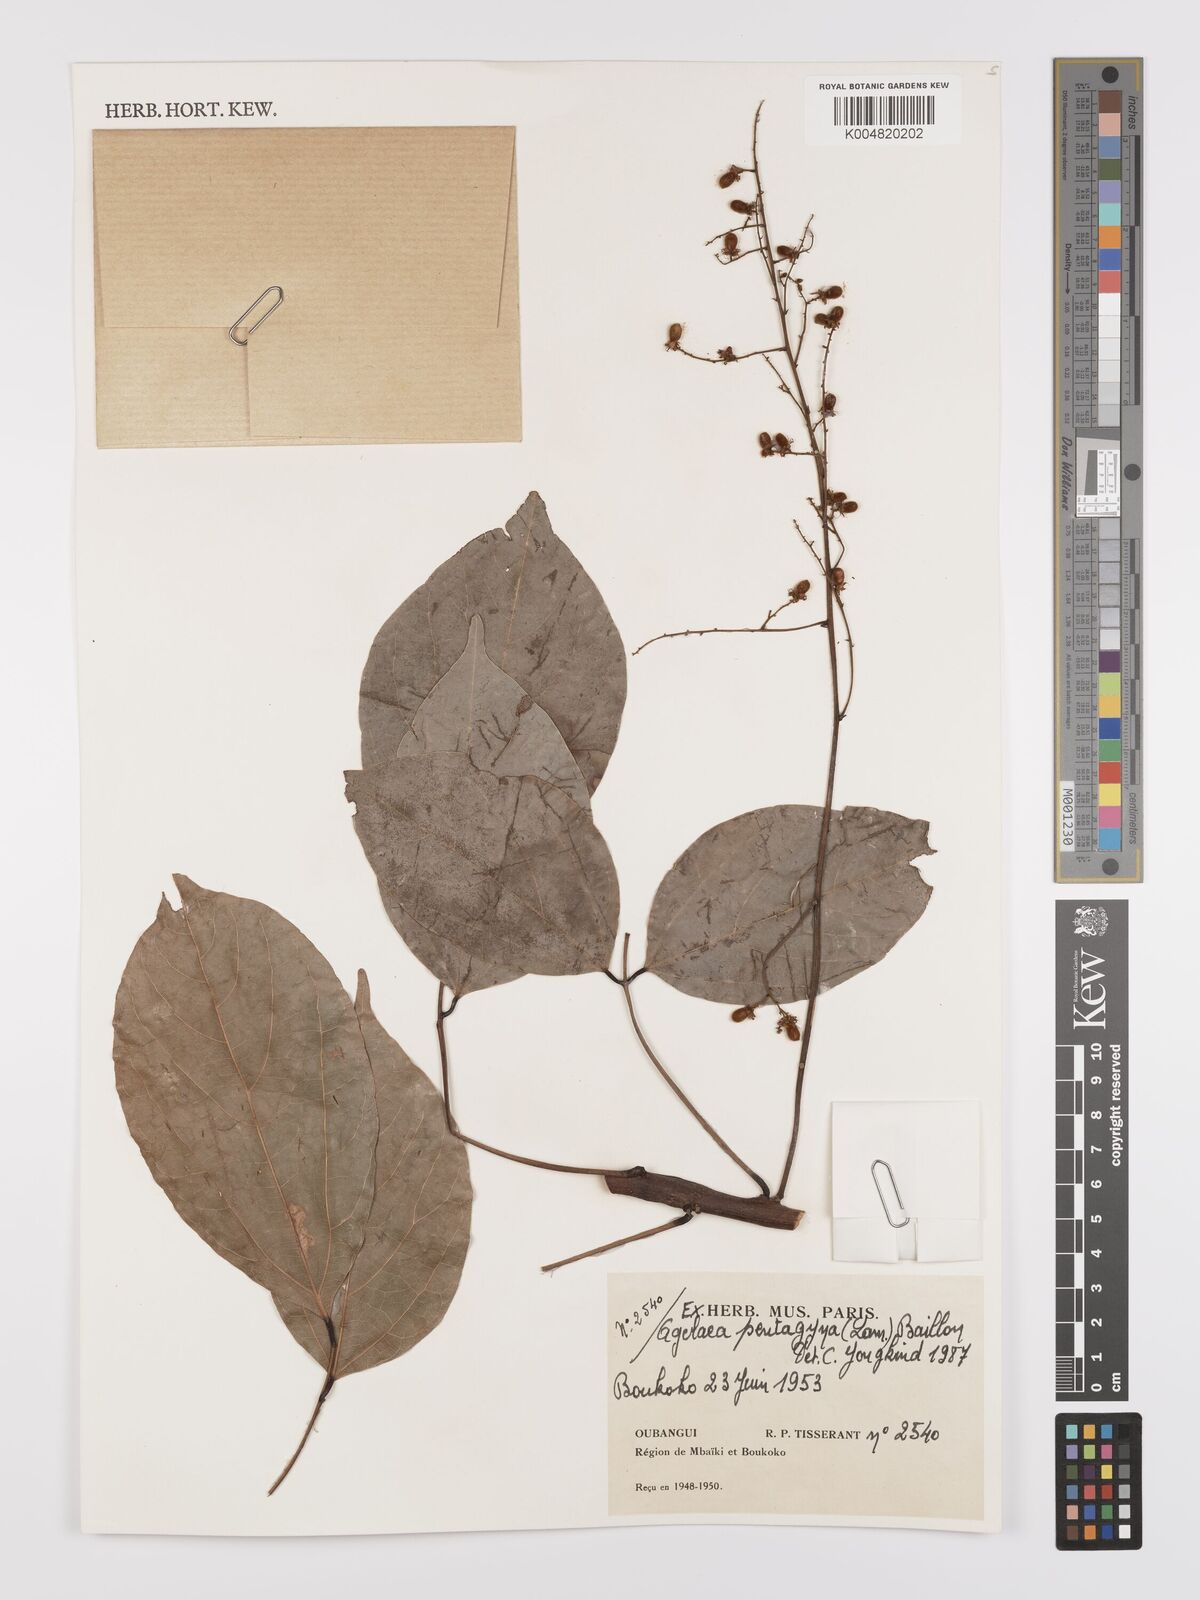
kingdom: Plantae
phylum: Tracheophyta
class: Magnoliopsida
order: Oxalidales
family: Connaraceae
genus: Agelaea
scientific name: Agelaea pentagyna
